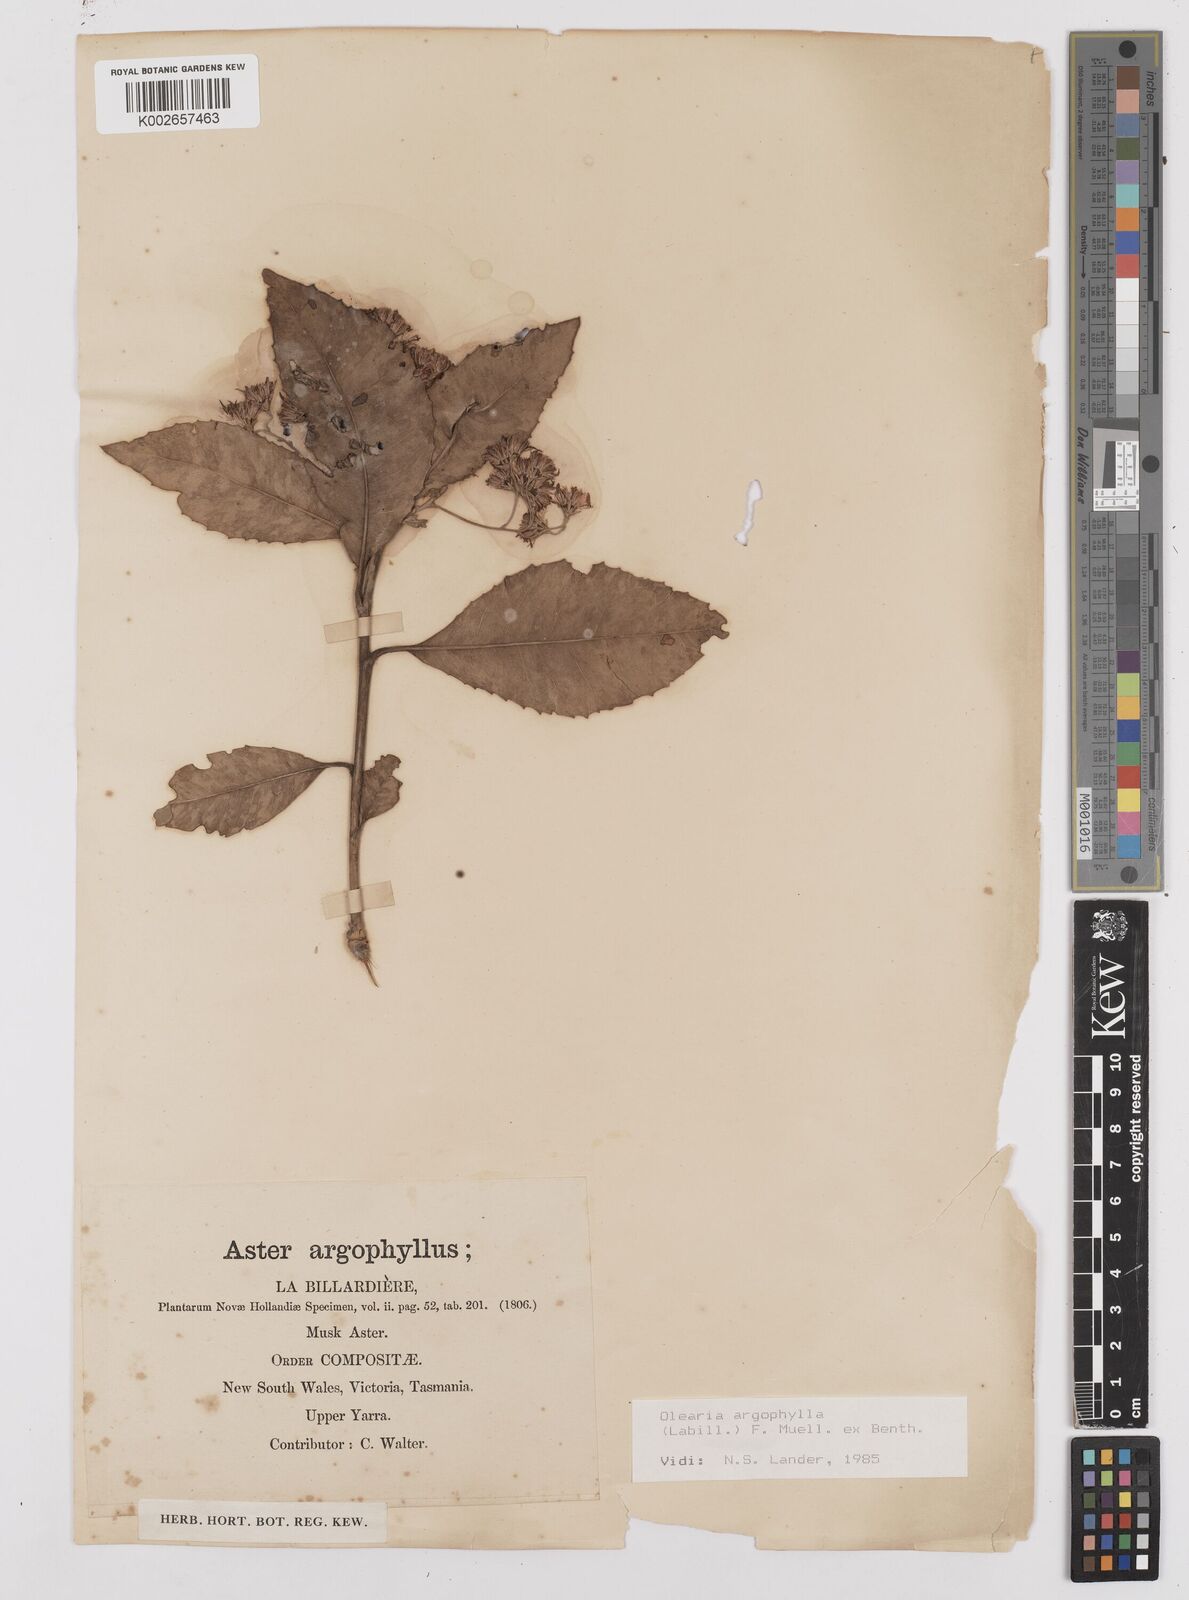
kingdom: Plantae
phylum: Tracheophyta
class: Magnoliopsida
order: Asterales
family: Asteraceae
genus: Olearia
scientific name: Olearia argophylla
